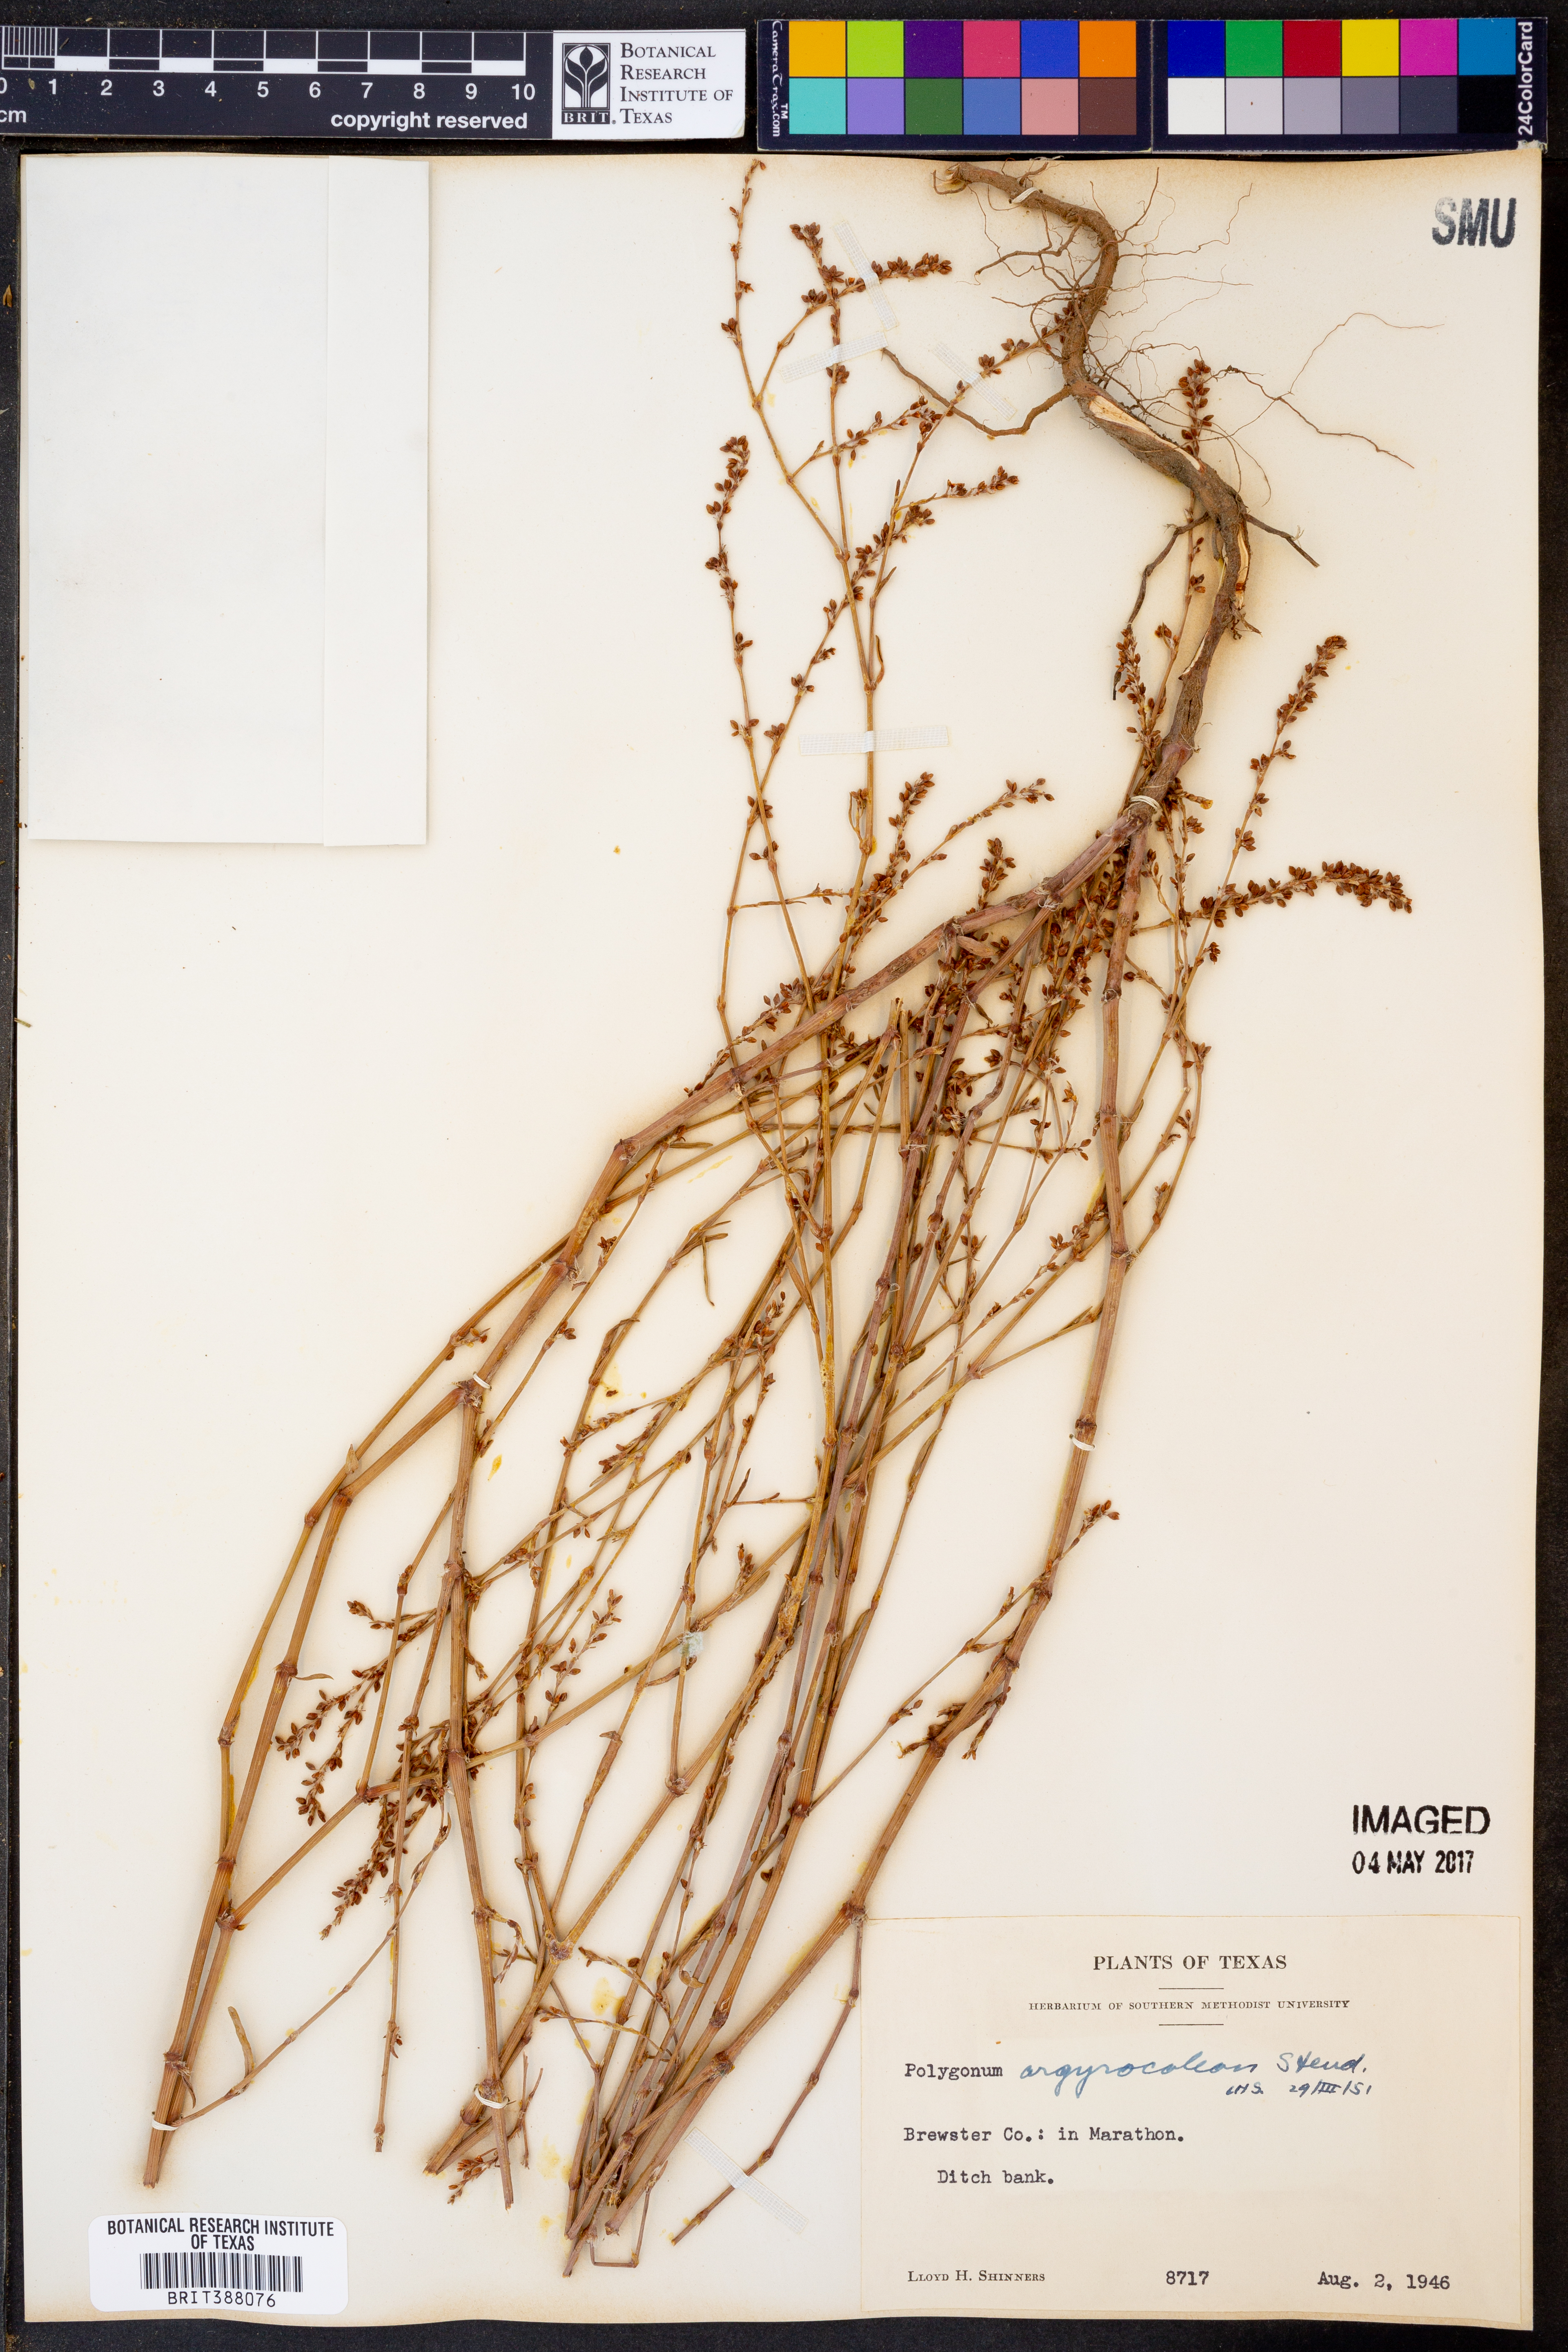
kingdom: Plantae
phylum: Tracheophyta
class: Magnoliopsida
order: Caryophyllales
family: Polygonaceae
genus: Polygonum
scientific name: Polygonum argyrocoleum
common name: Silversheath knotweed
